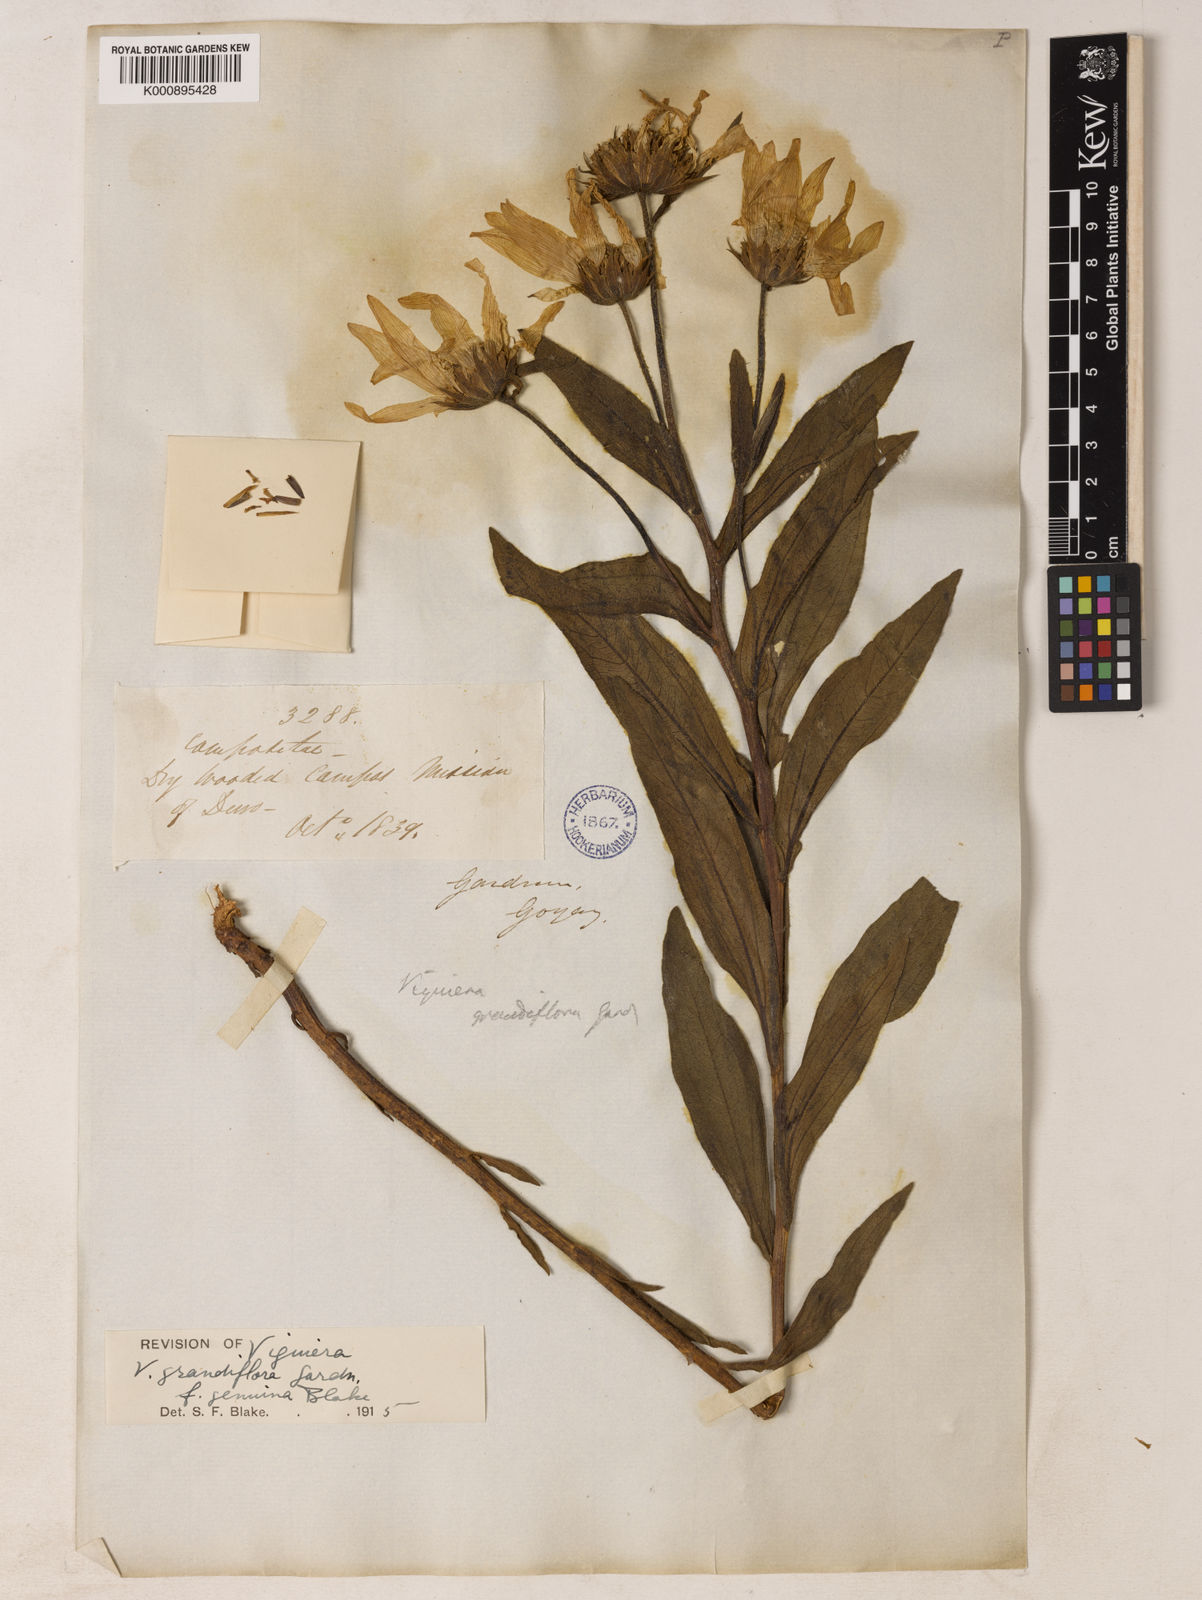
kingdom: Plantae
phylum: Tracheophyta
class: Magnoliopsida
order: Asterales
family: Asteraceae
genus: Aldama
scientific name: Aldama grandiflora
